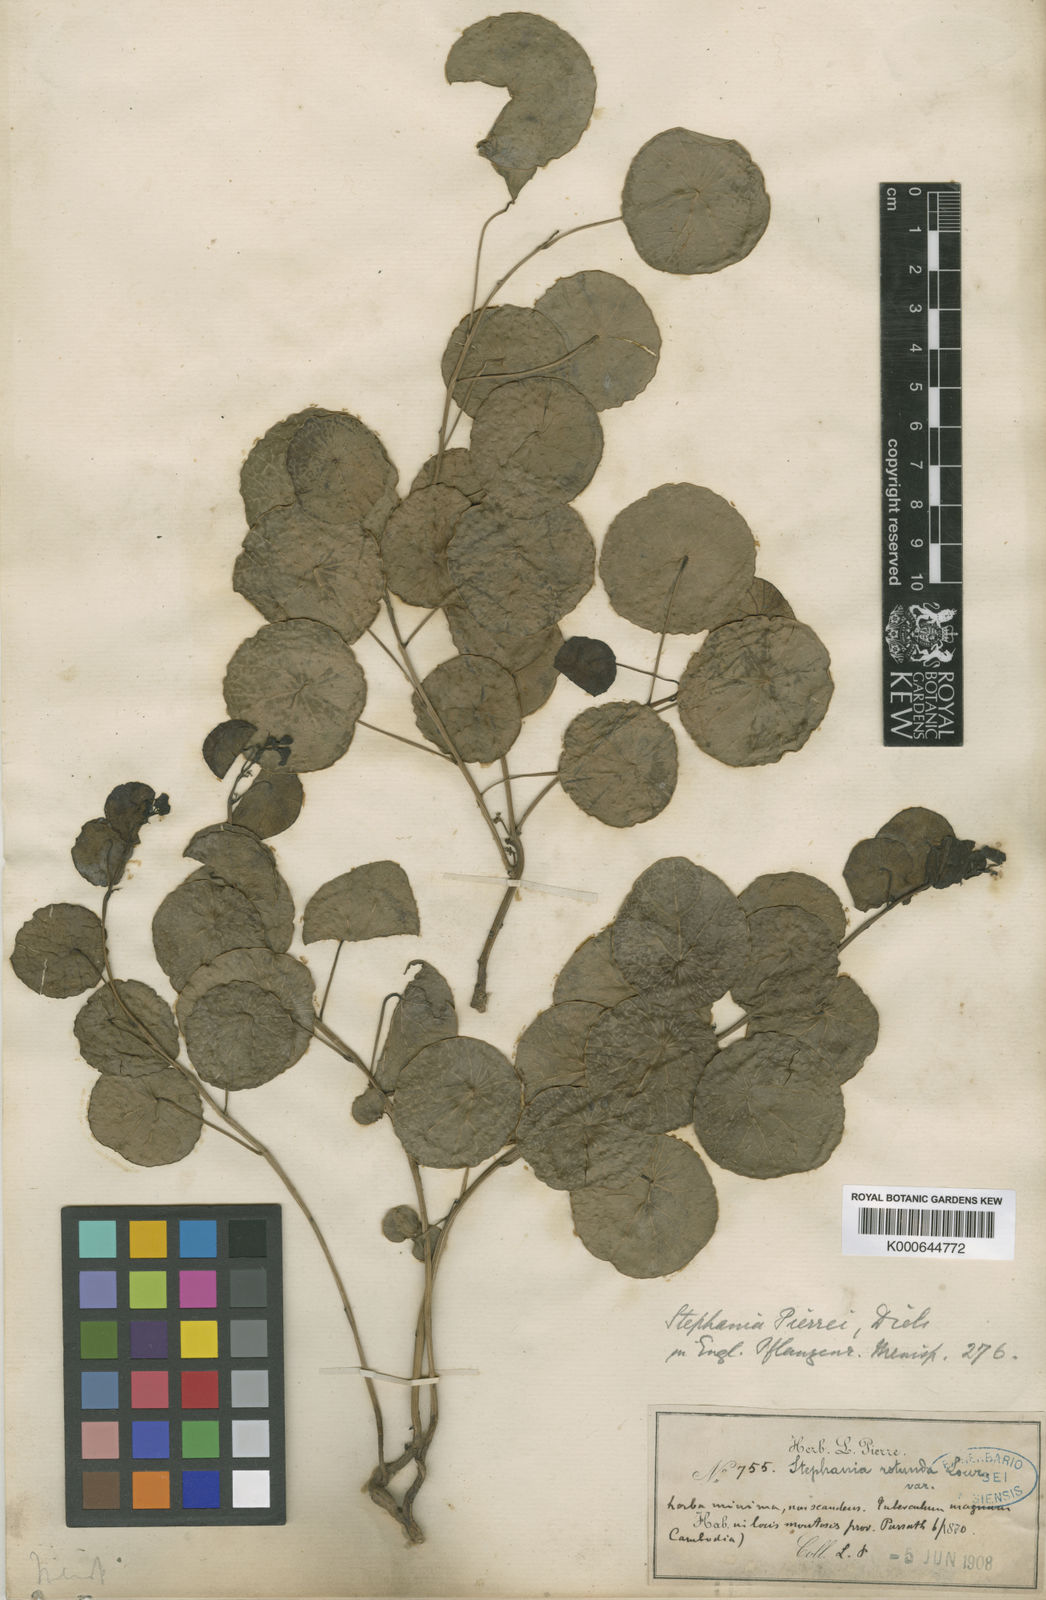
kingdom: Plantae
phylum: Tracheophyta
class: Magnoliopsida
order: Ranunculales
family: Menispermaceae
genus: Stephania
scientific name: Stephania pierrei
